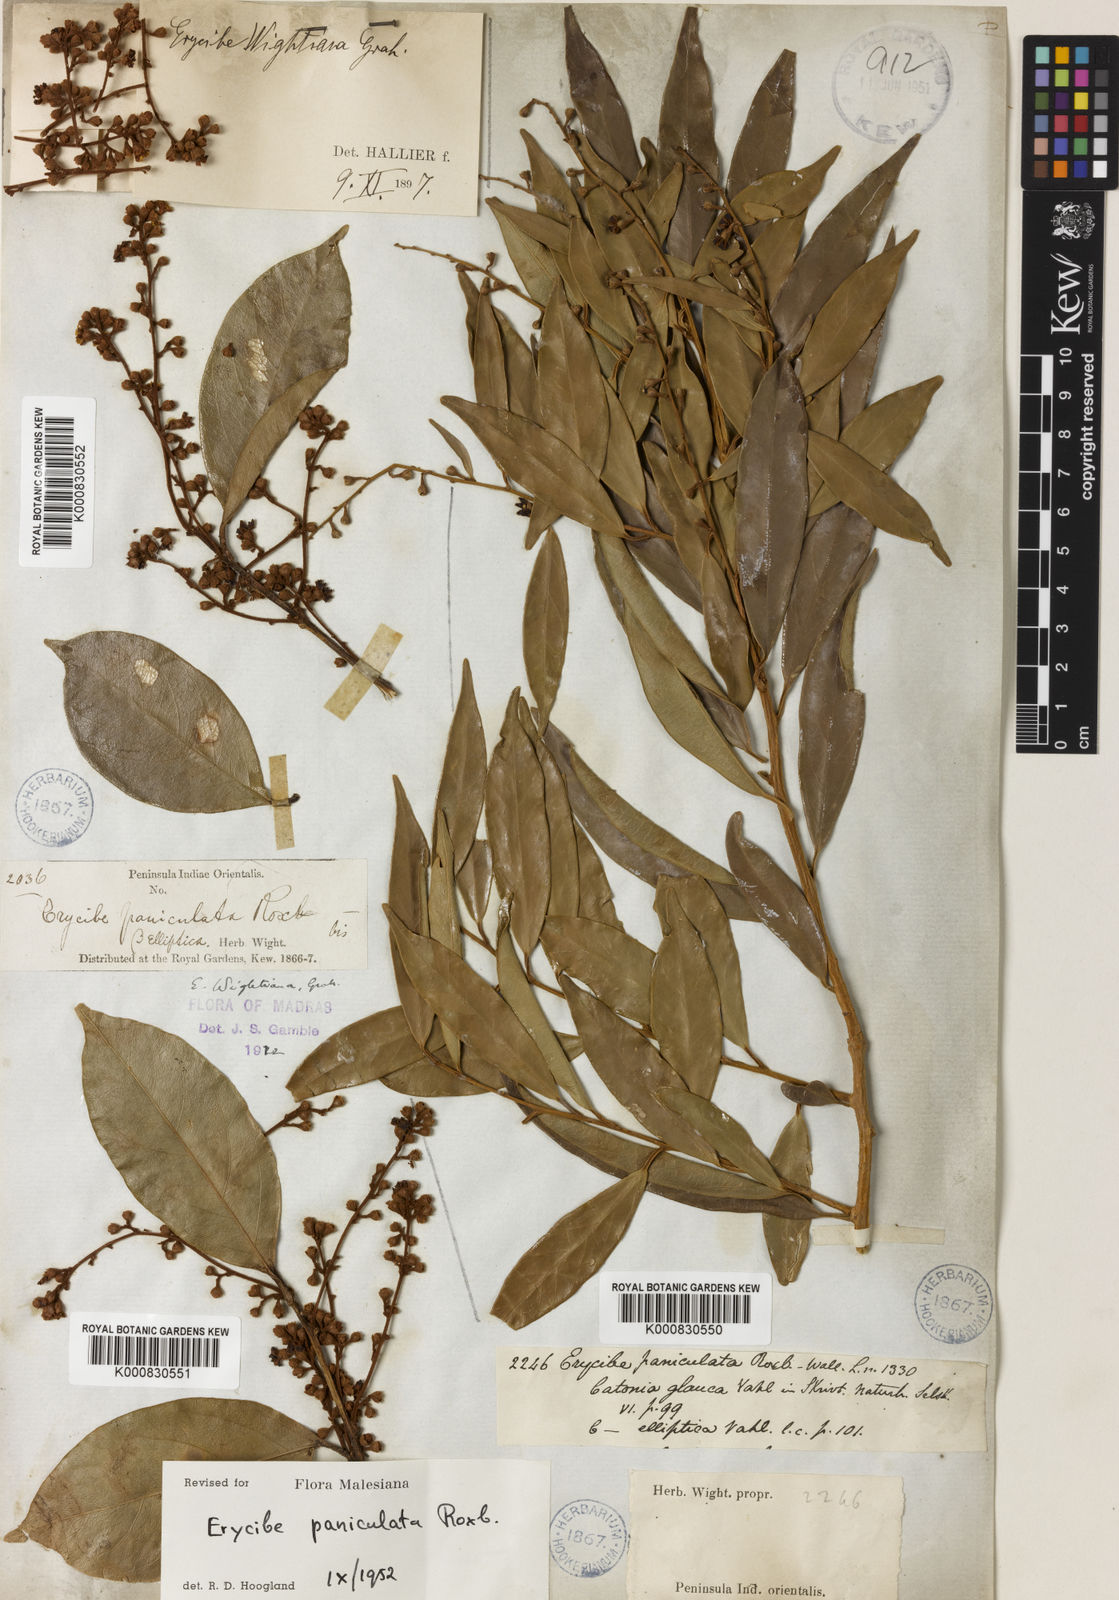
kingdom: Plantae
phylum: Tracheophyta
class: Magnoliopsida
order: Solanales
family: Convolvulaceae
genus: Erycibe
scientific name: Erycibe paniculata
